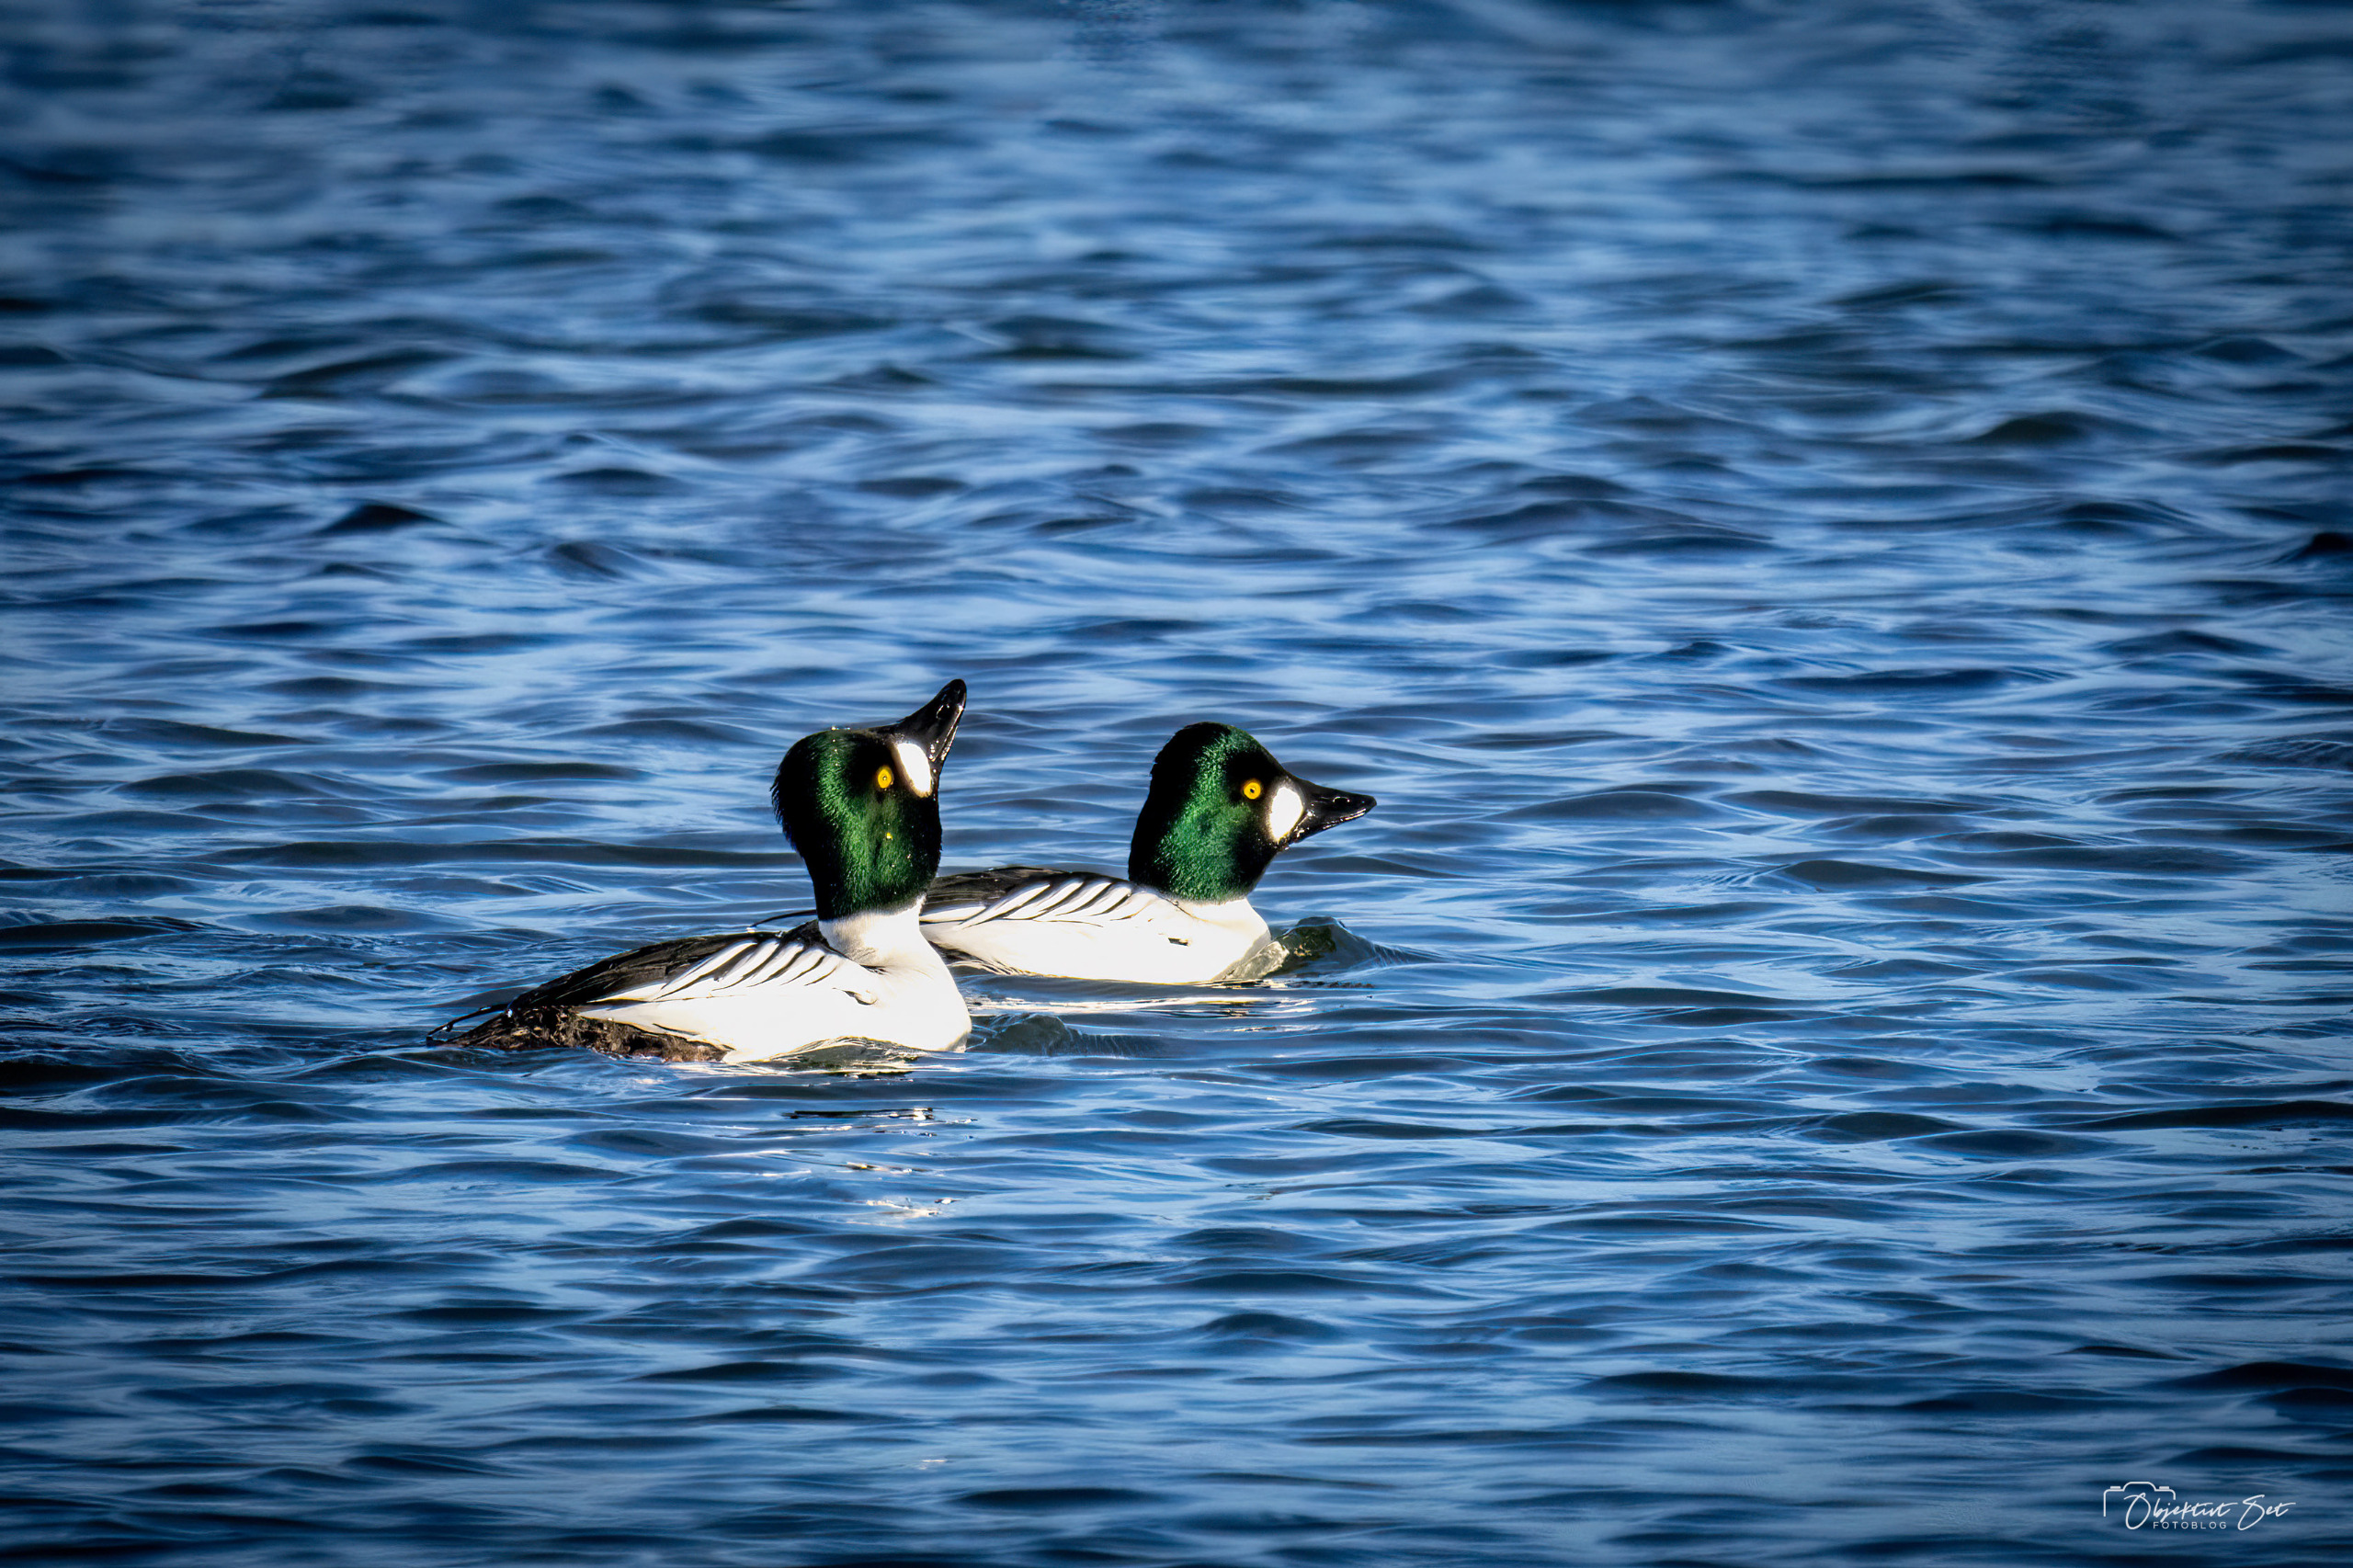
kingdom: Animalia
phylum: Chordata
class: Aves
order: Anseriformes
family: Anatidae
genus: Bucephala
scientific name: Bucephala clangula
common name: Hvinand
